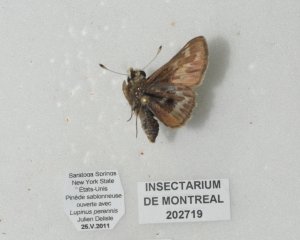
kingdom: Animalia
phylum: Arthropoda
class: Insecta
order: Lepidoptera
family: Hesperiidae
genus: Hesperia
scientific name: Hesperia metea
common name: Cobweb Skipper
